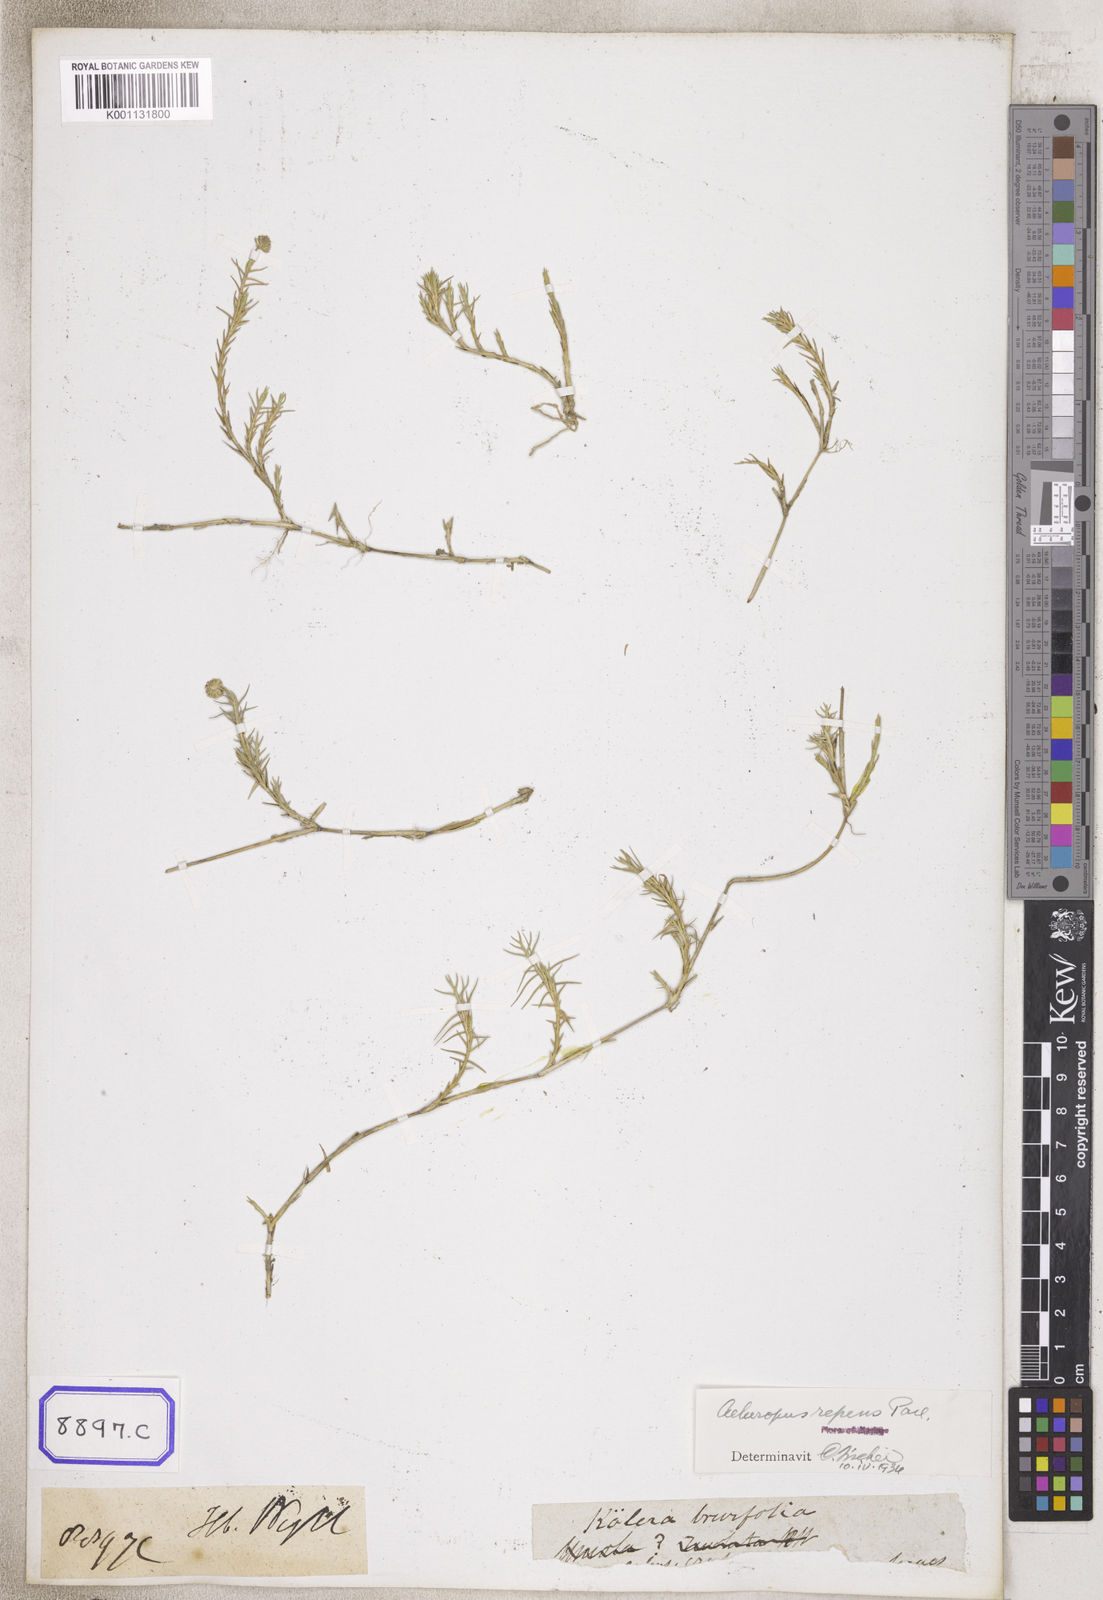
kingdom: Plantae
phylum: Tracheophyta
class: Liliopsida
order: Poales
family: Poaceae
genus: Aeluropus
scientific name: Aeluropus
